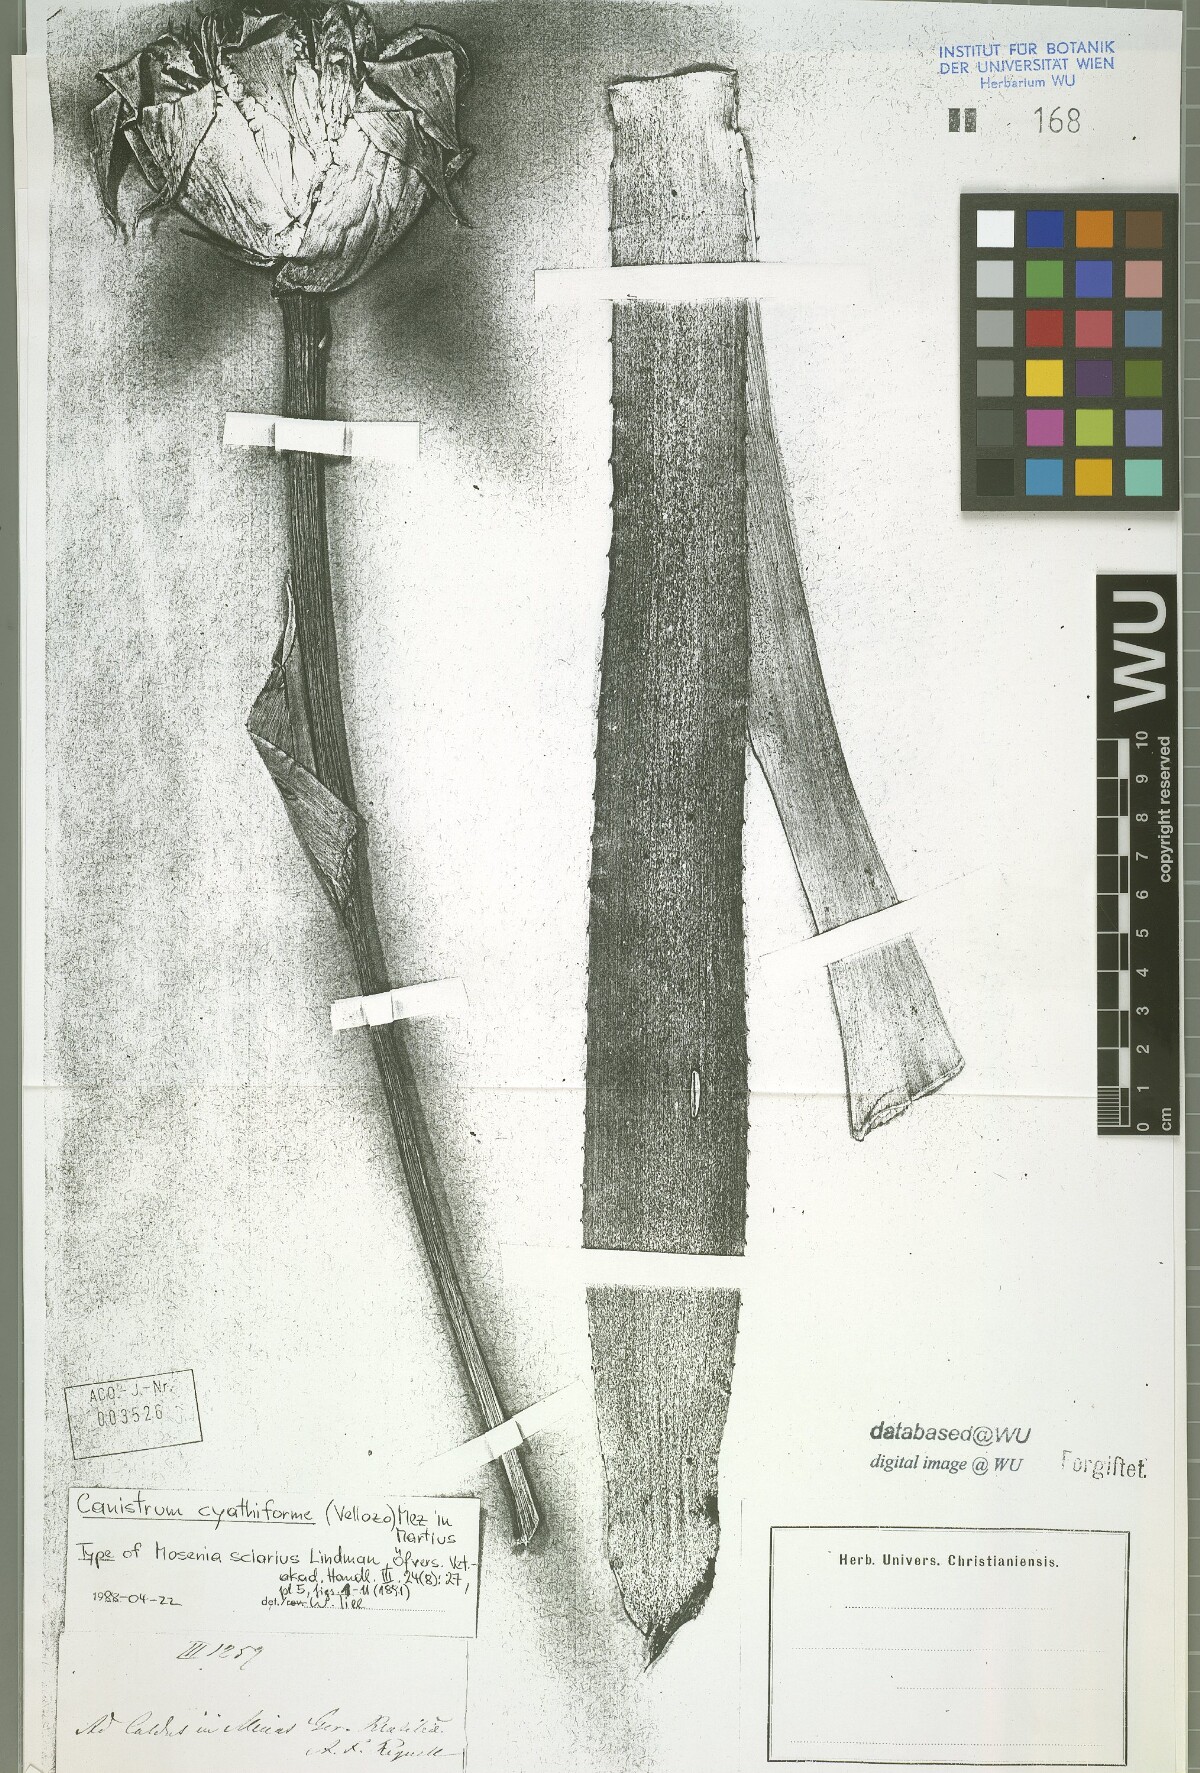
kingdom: Plantae
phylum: Tracheophyta
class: Liliopsida
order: Poales
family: Bromeliaceae
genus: Wittrockia
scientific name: Wittrockia cyathiformis
